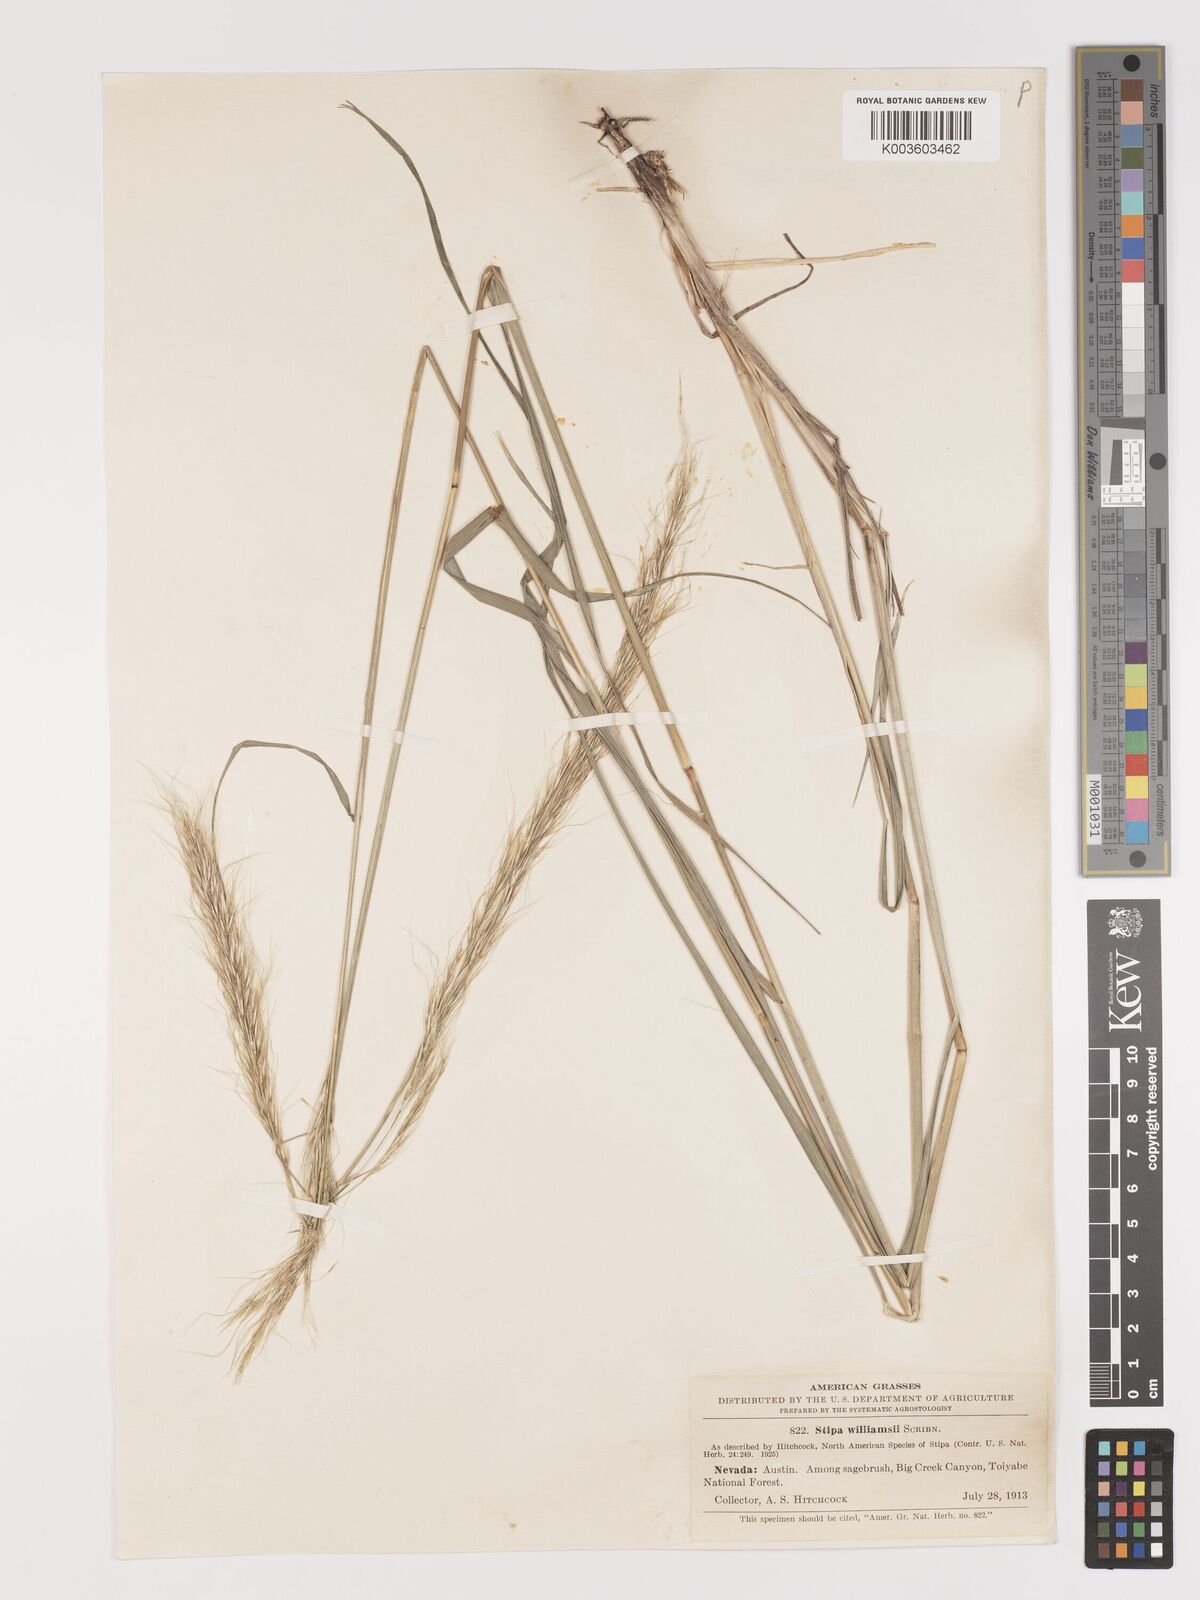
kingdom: Plantae
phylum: Tracheophyta
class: Liliopsida
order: Poales
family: Poaceae
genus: Eriocoma
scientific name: Eriocoma nelsonii
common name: Nelson's needlegrass
